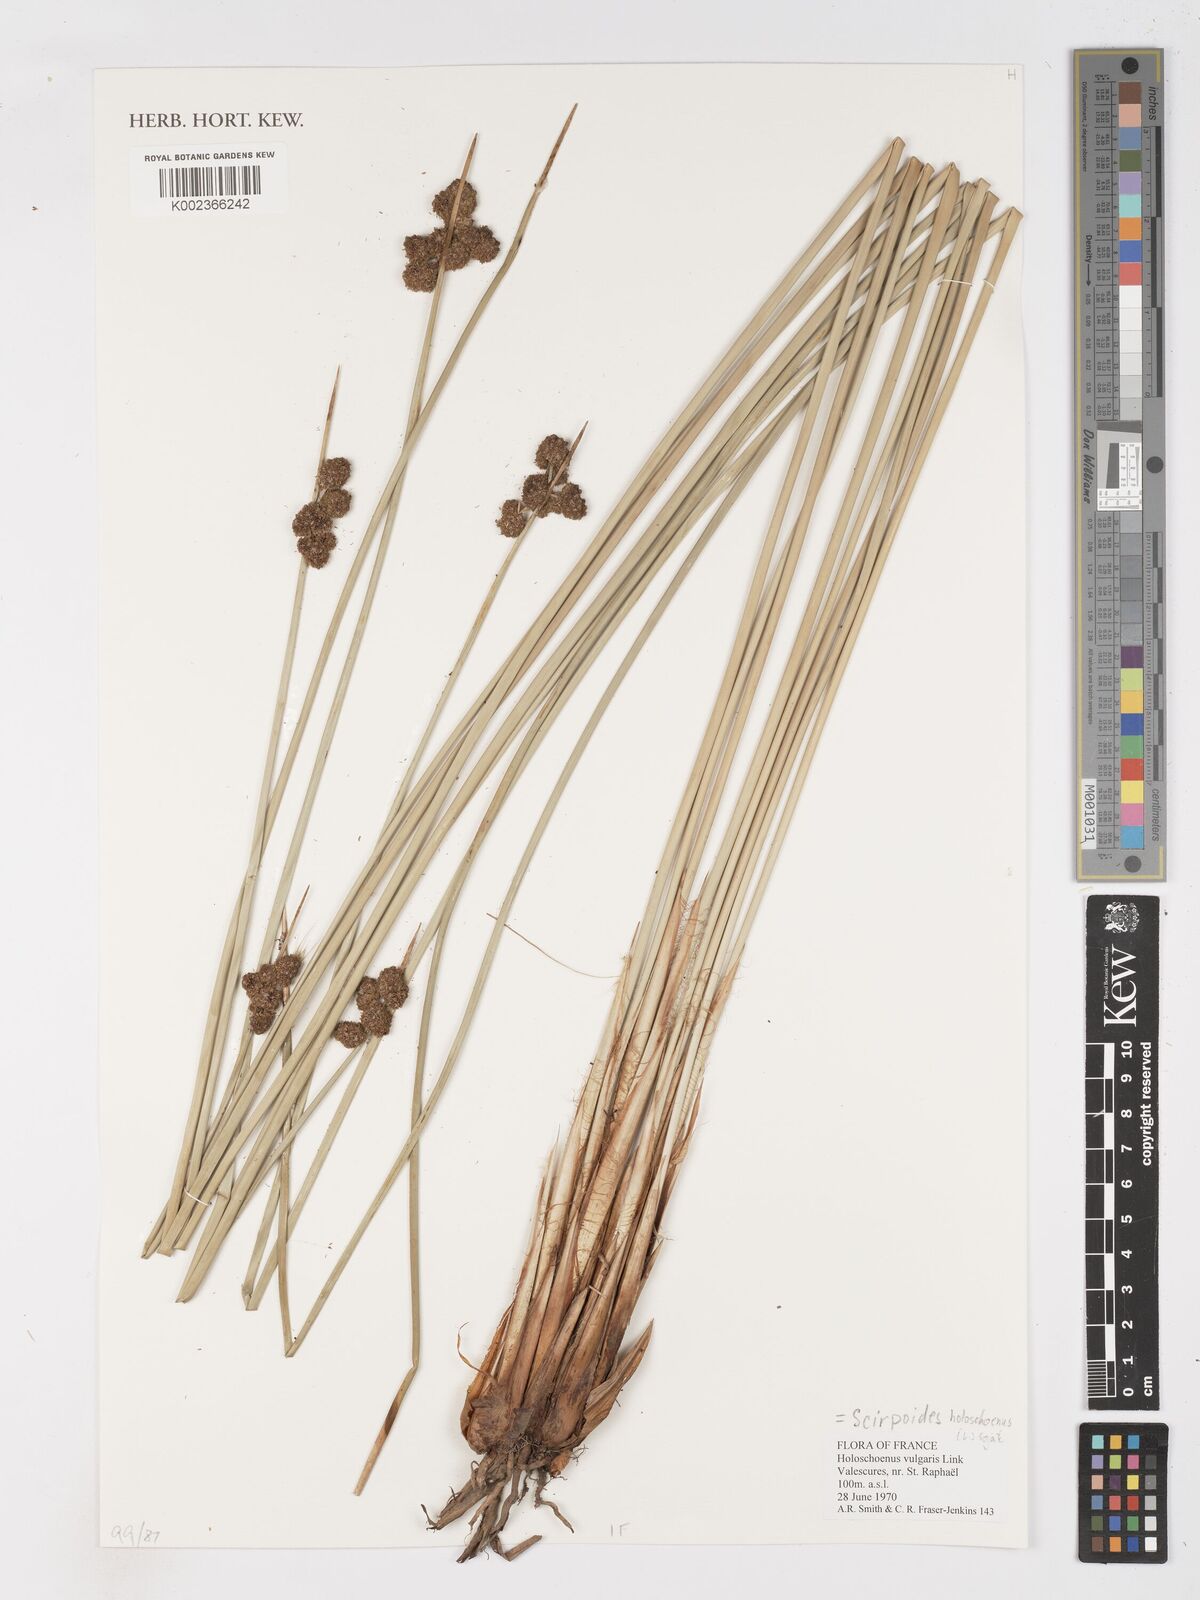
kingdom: Plantae
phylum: Tracheophyta
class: Liliopsida
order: Poales
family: Cyperaceae
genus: Scirpoides
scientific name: Scirpoides holoschoenus
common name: Round-headed club-rush
